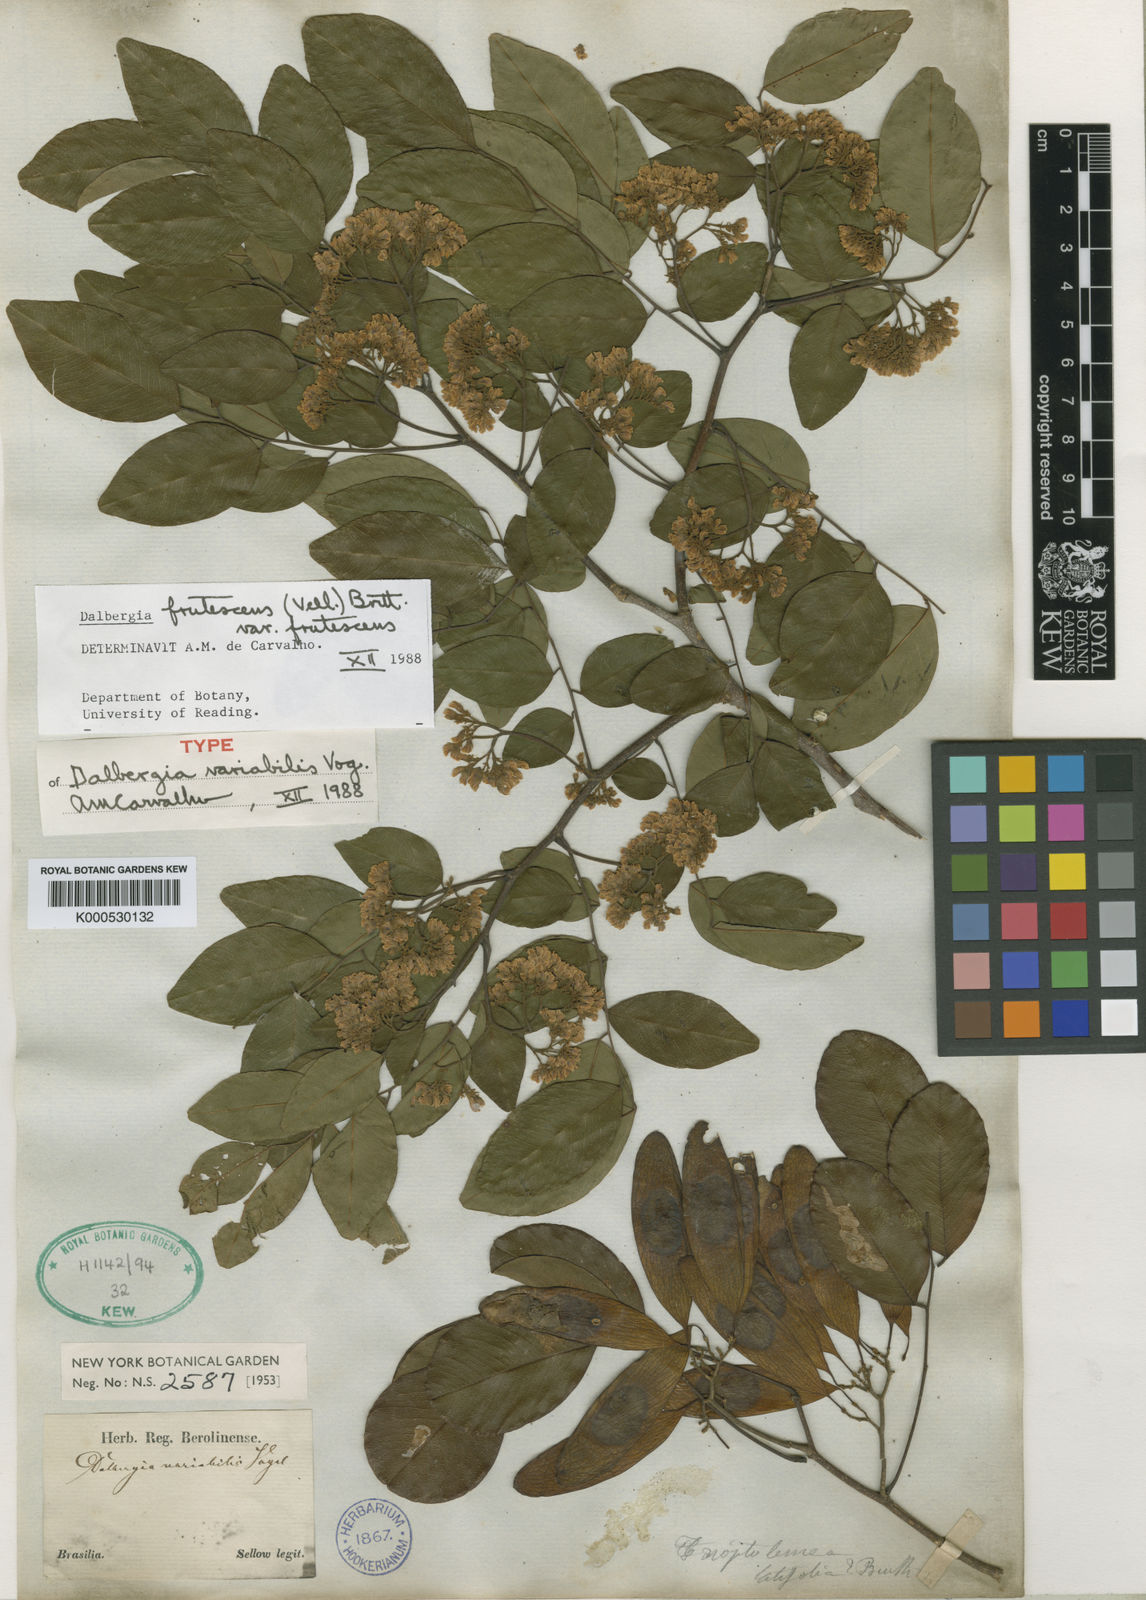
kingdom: Plantae
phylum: Tracheophyta
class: Magnoliopsida
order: Fabales
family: Fabaceae
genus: Dalbergia
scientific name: Dalbergia frutescens
